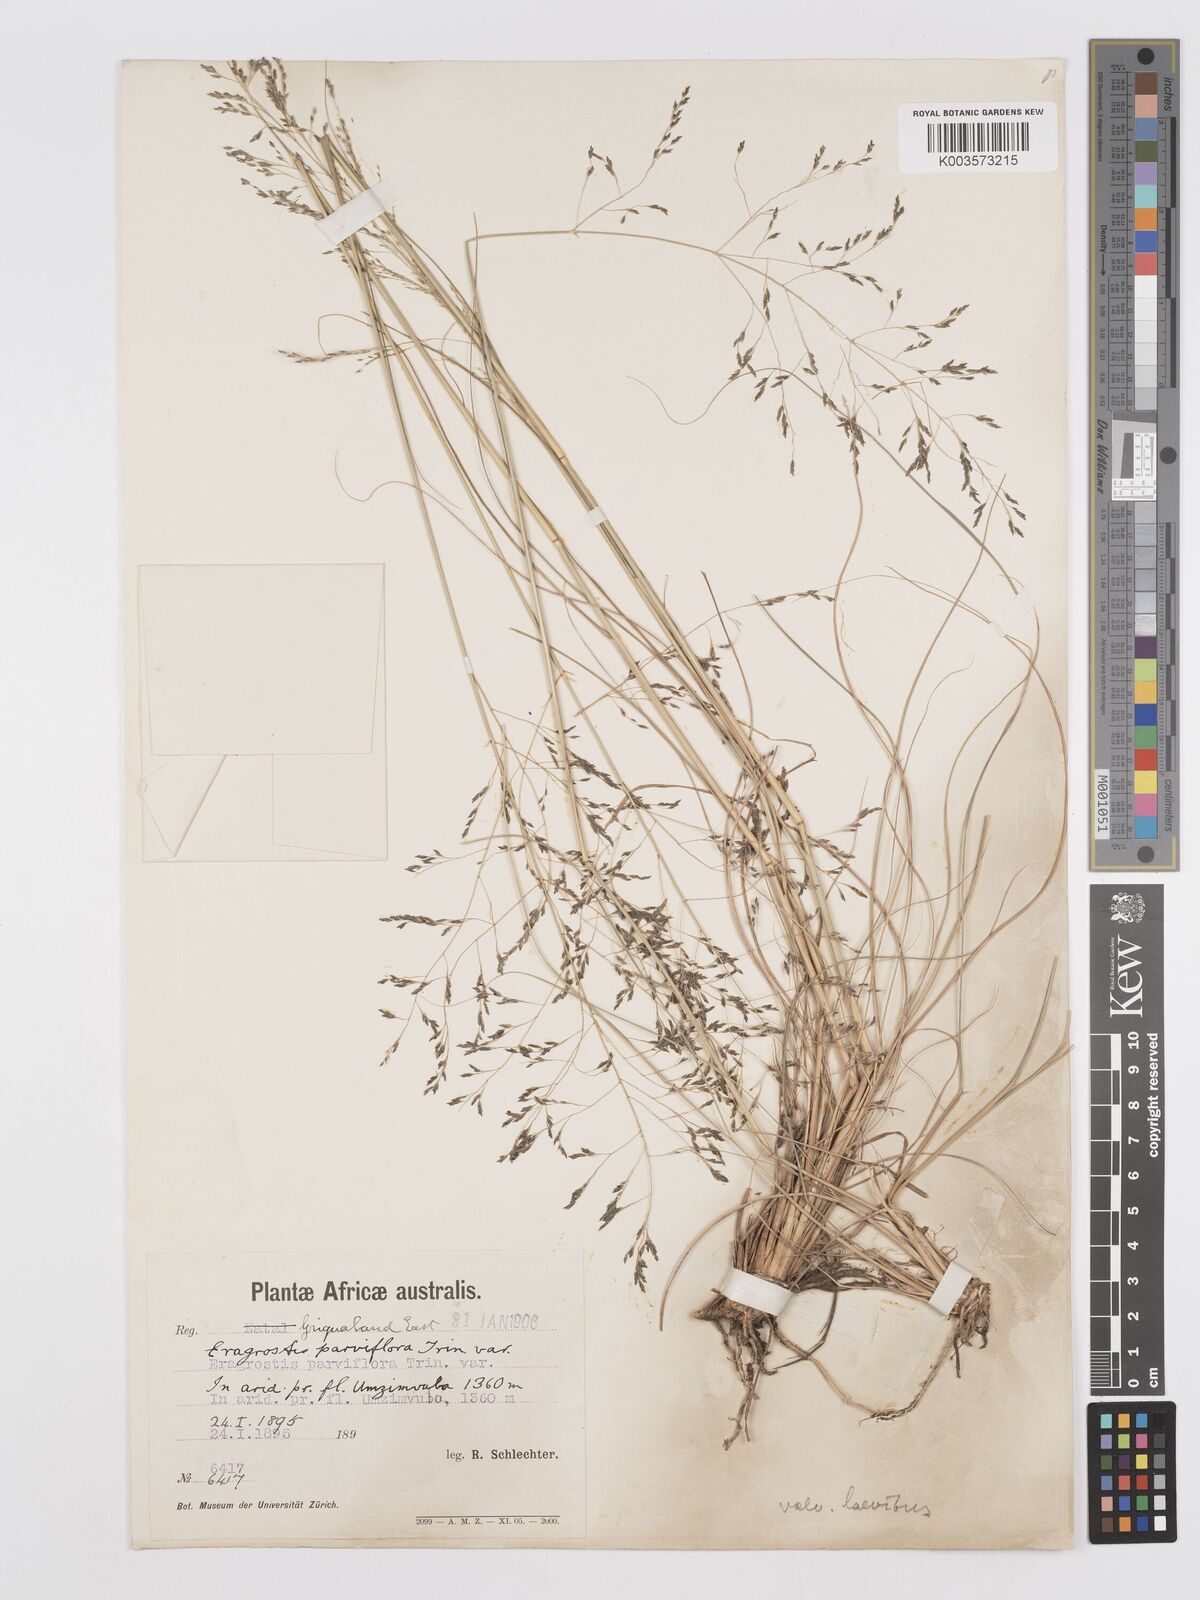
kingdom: Plantae
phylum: Tracheophyta
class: Liliopsida
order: Poales
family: Poaceae
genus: Eragrostis
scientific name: Eragrostis curvula
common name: African love-grass
